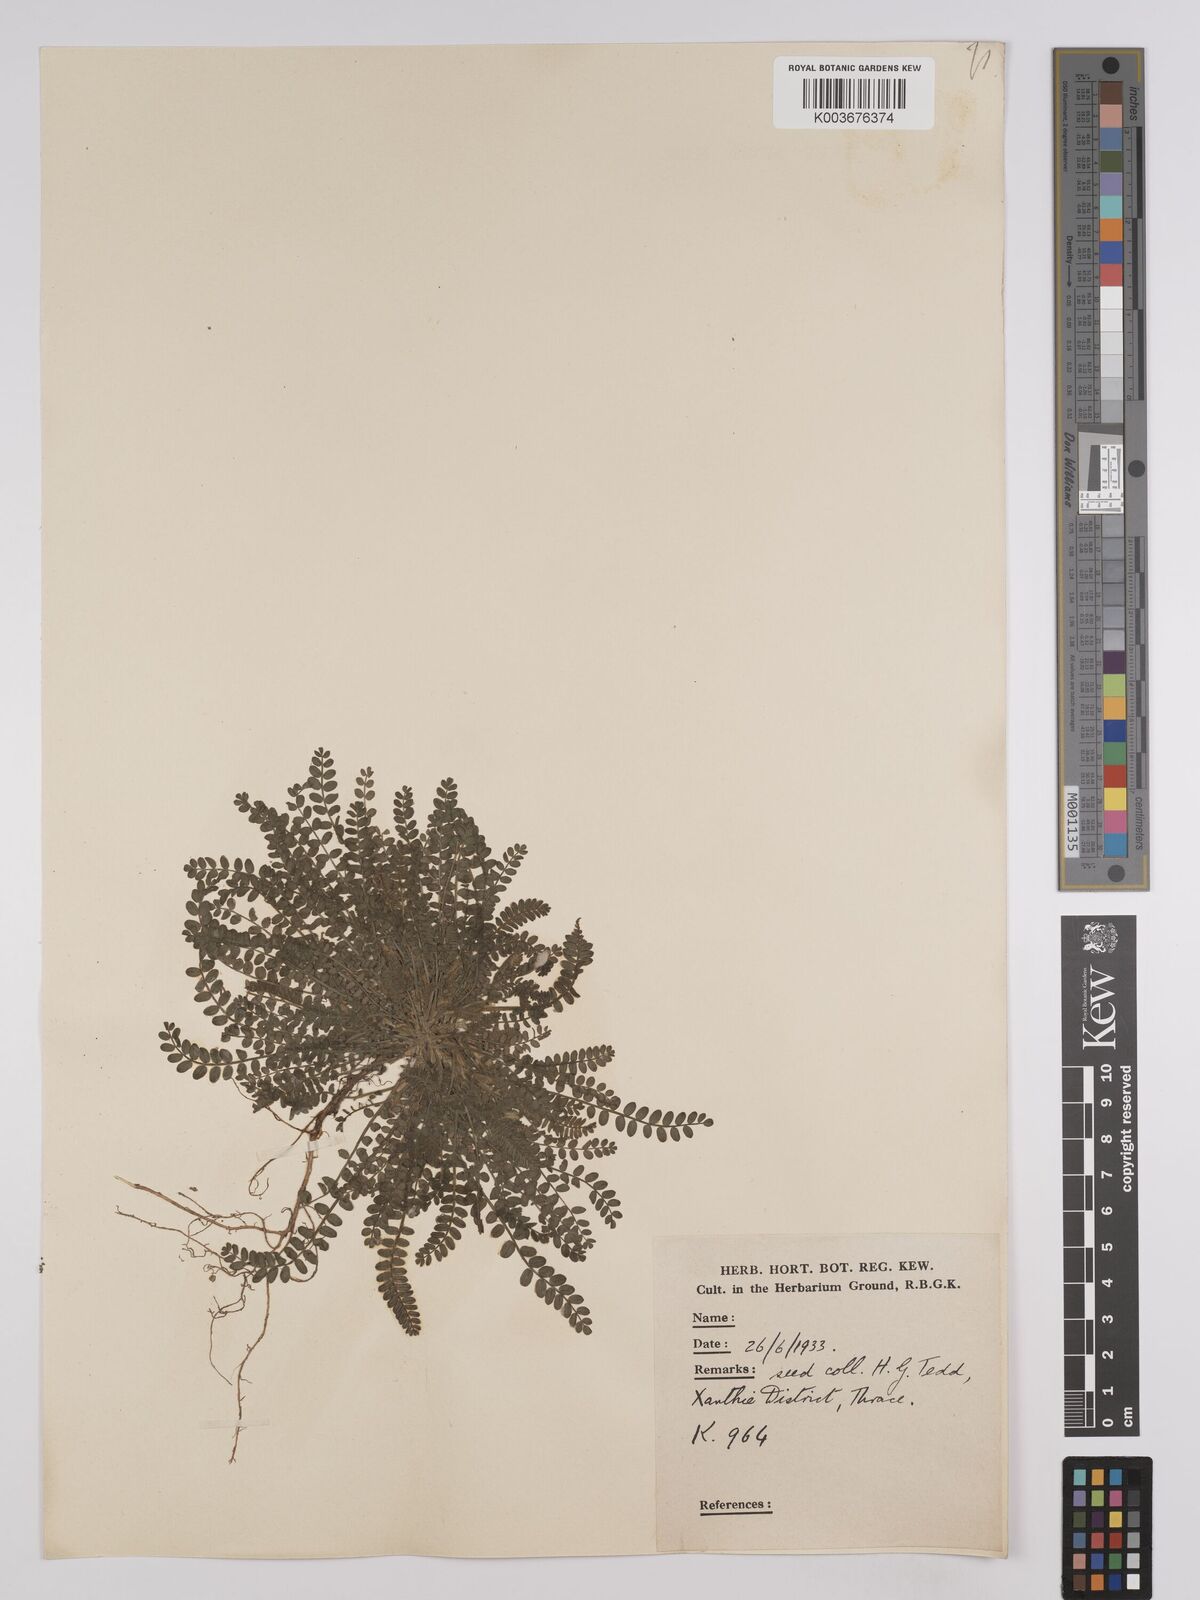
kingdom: Plantae
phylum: Tracheophyta
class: Magnoliopsida
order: Fabales
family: Fabaceae
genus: Ornithopus
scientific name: Ornithopus compressus
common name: Yellow serradella
